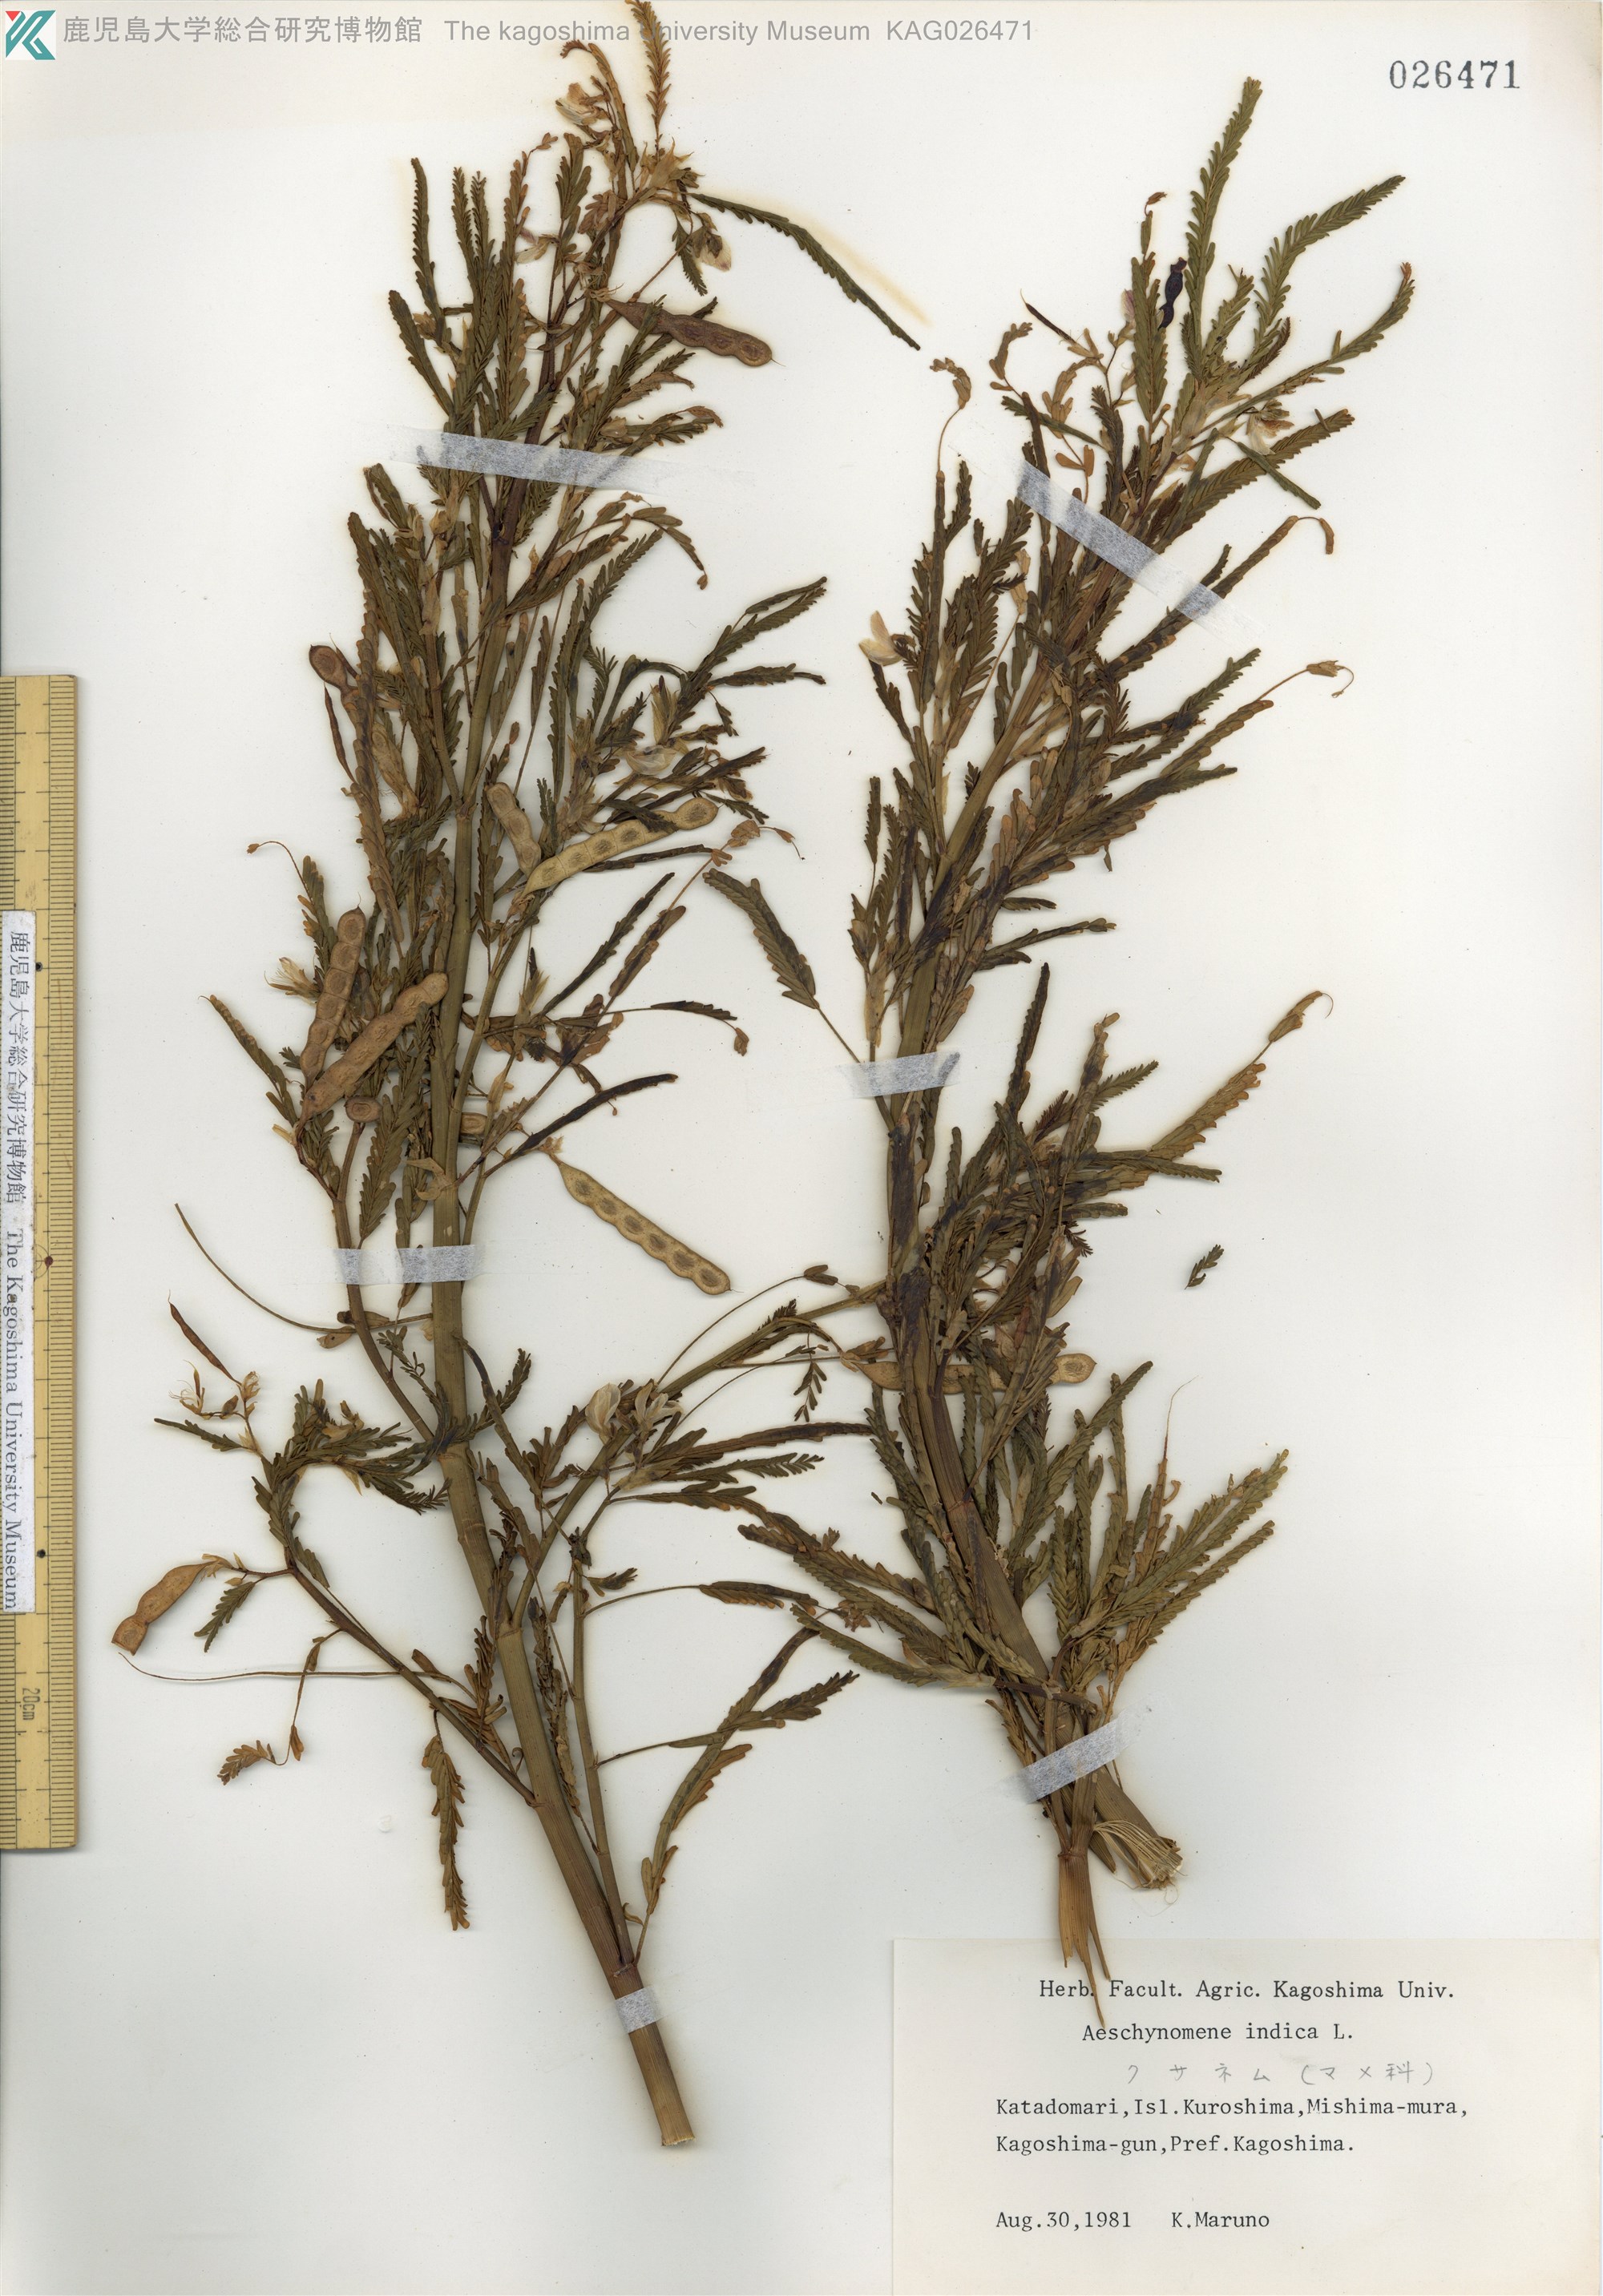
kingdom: Plantae
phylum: Tracheophyta
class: Magnoliopsida
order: Fabales
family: Fabaceae
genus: Aeschynomene
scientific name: Aeschynomene indica
